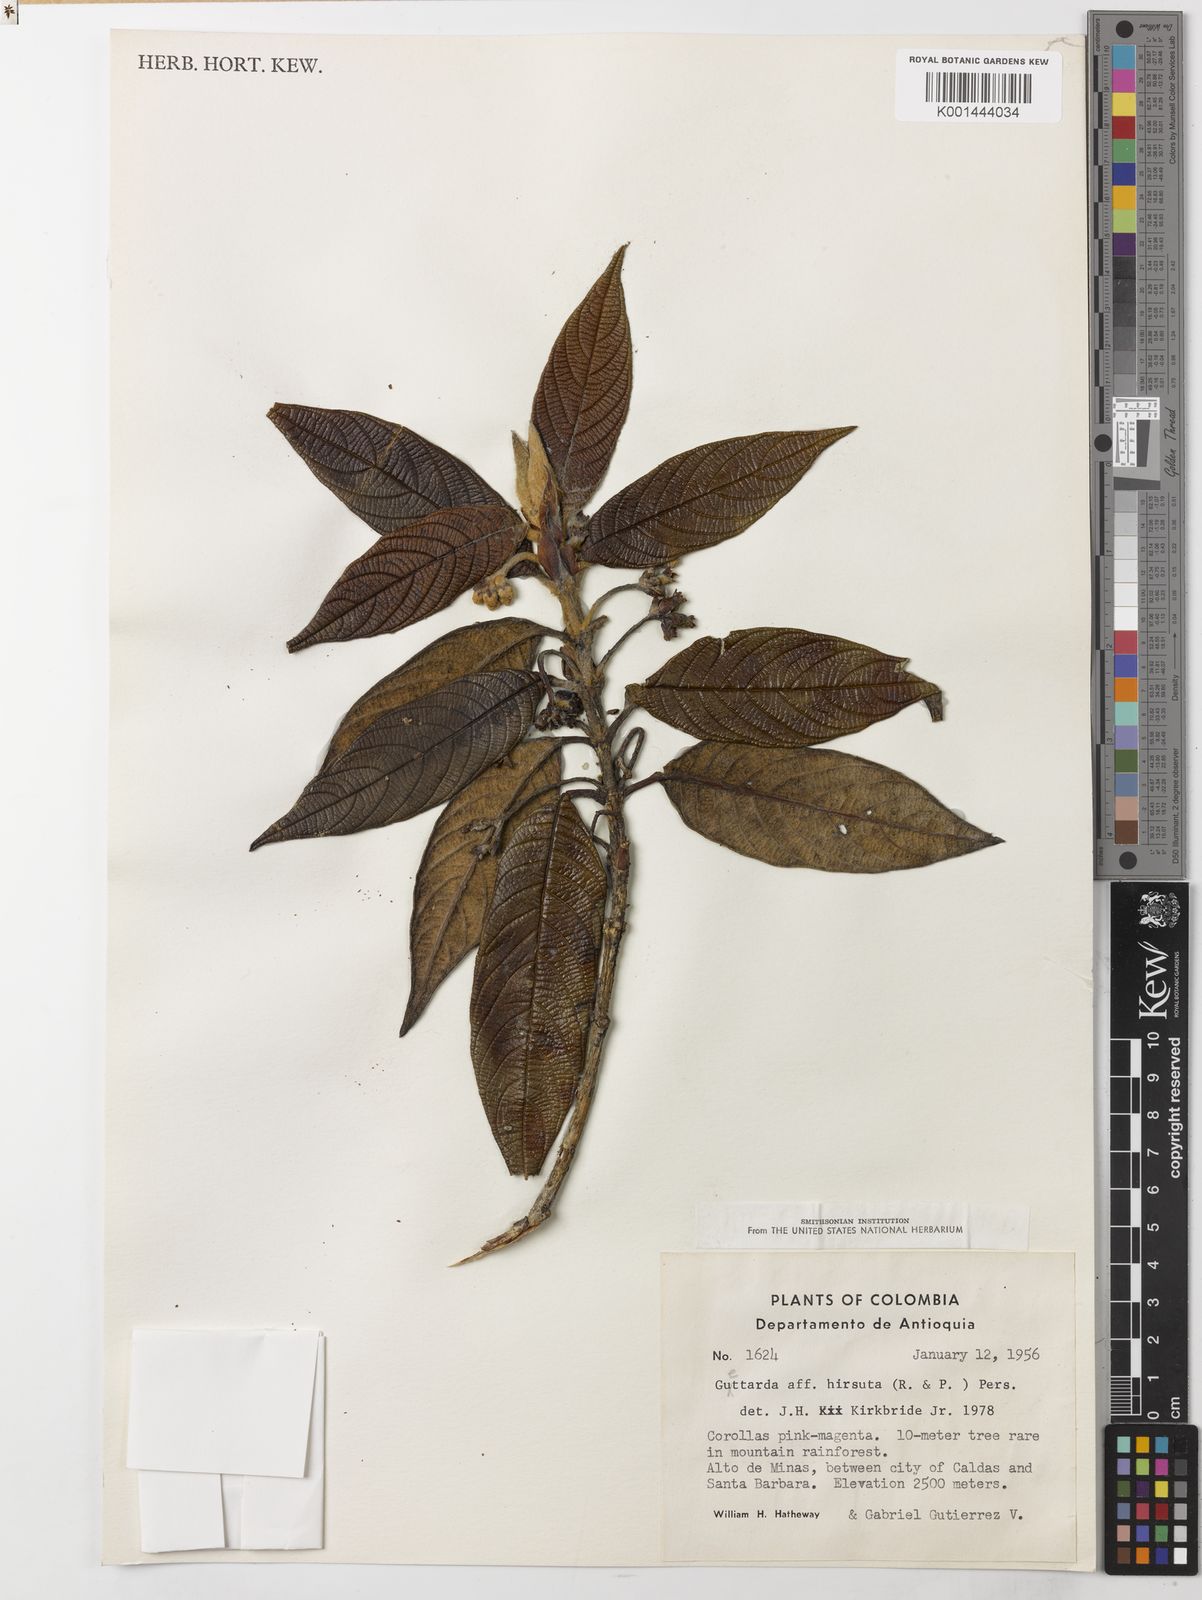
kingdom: Plantae
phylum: Tracheophyta
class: Magnoliopsida
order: Gentianales
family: Rubiaceae
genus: Tournefortiopsis
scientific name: Tournefortiopsis hirsuta
